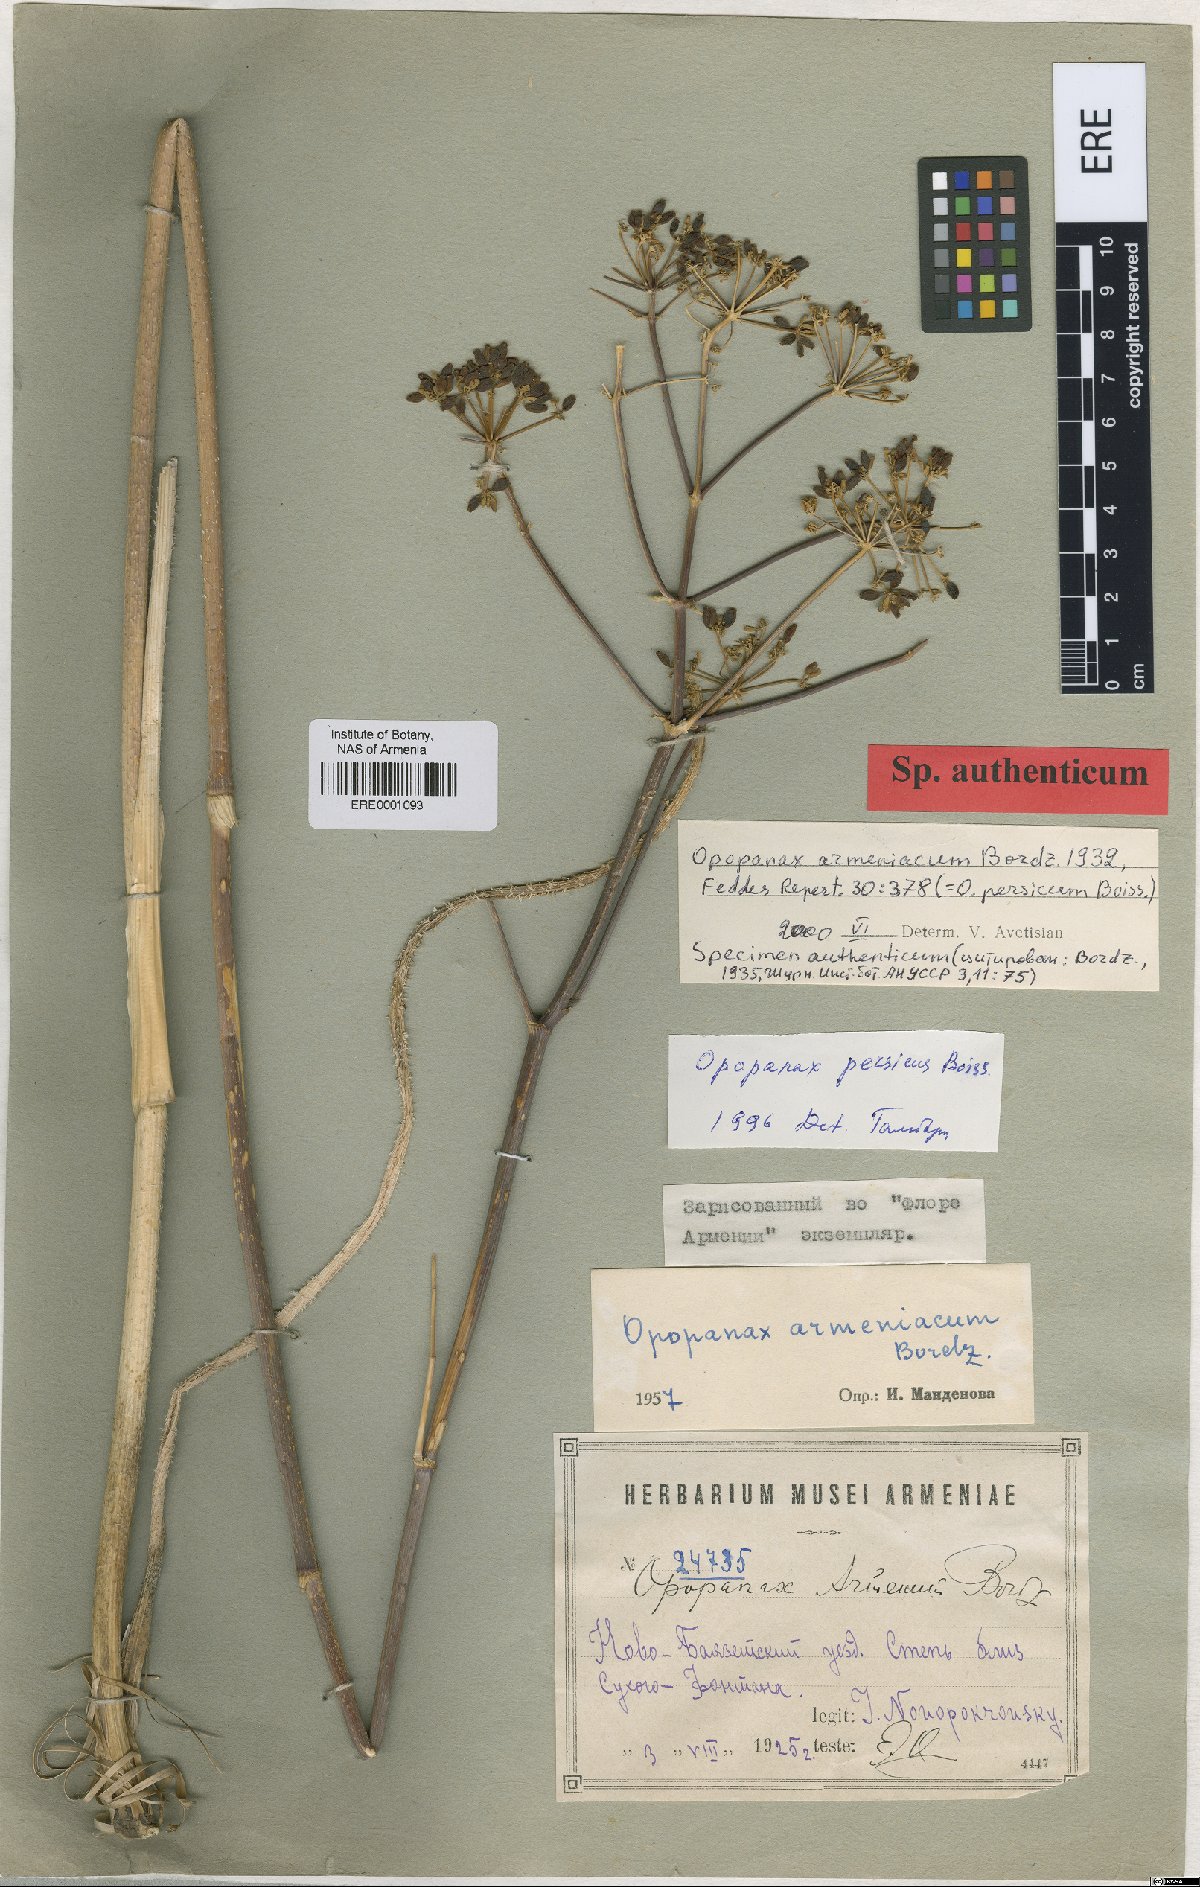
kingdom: Plantae
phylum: Tracheophyta
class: Magnoliopsida
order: Apiales
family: Apiaceae
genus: Opopanax
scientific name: Opopanax persicus
